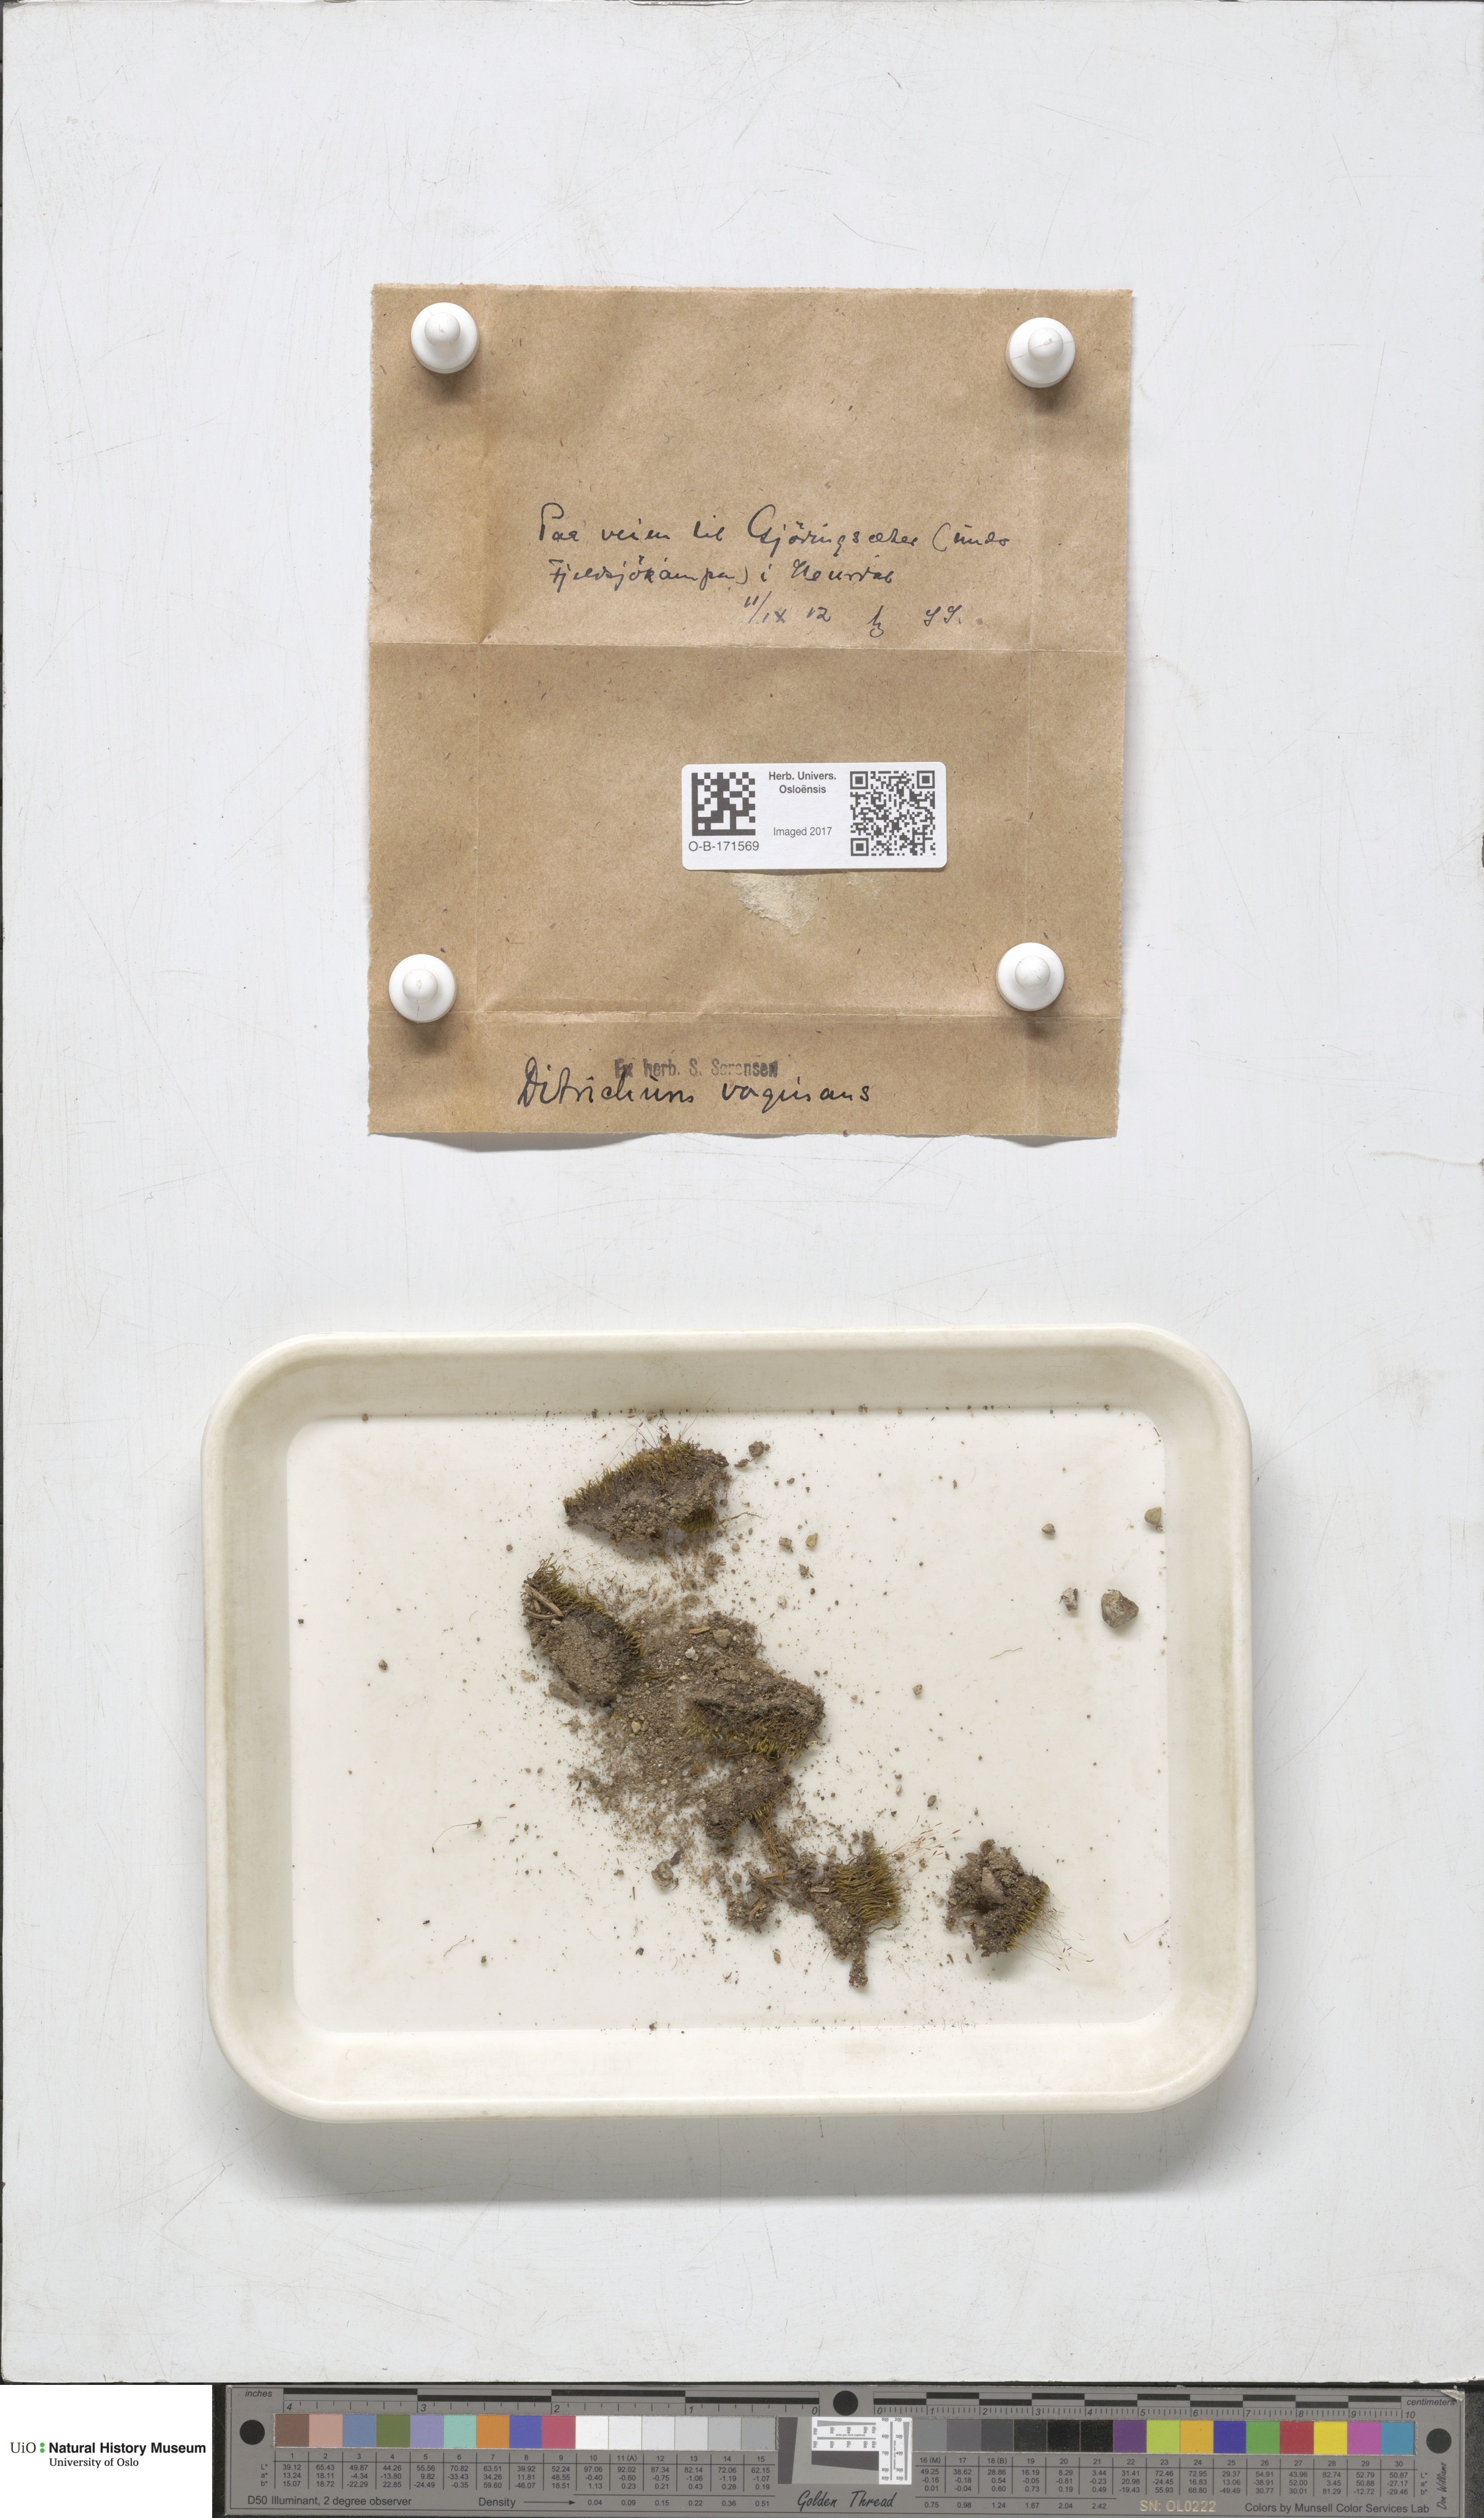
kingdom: Plantae
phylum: Bryophyta
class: Bryopsida
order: Dicranales
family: Ditrichaceae
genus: Ditrichum
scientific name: Ditrichum lineare
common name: Dark cow-hair moss
